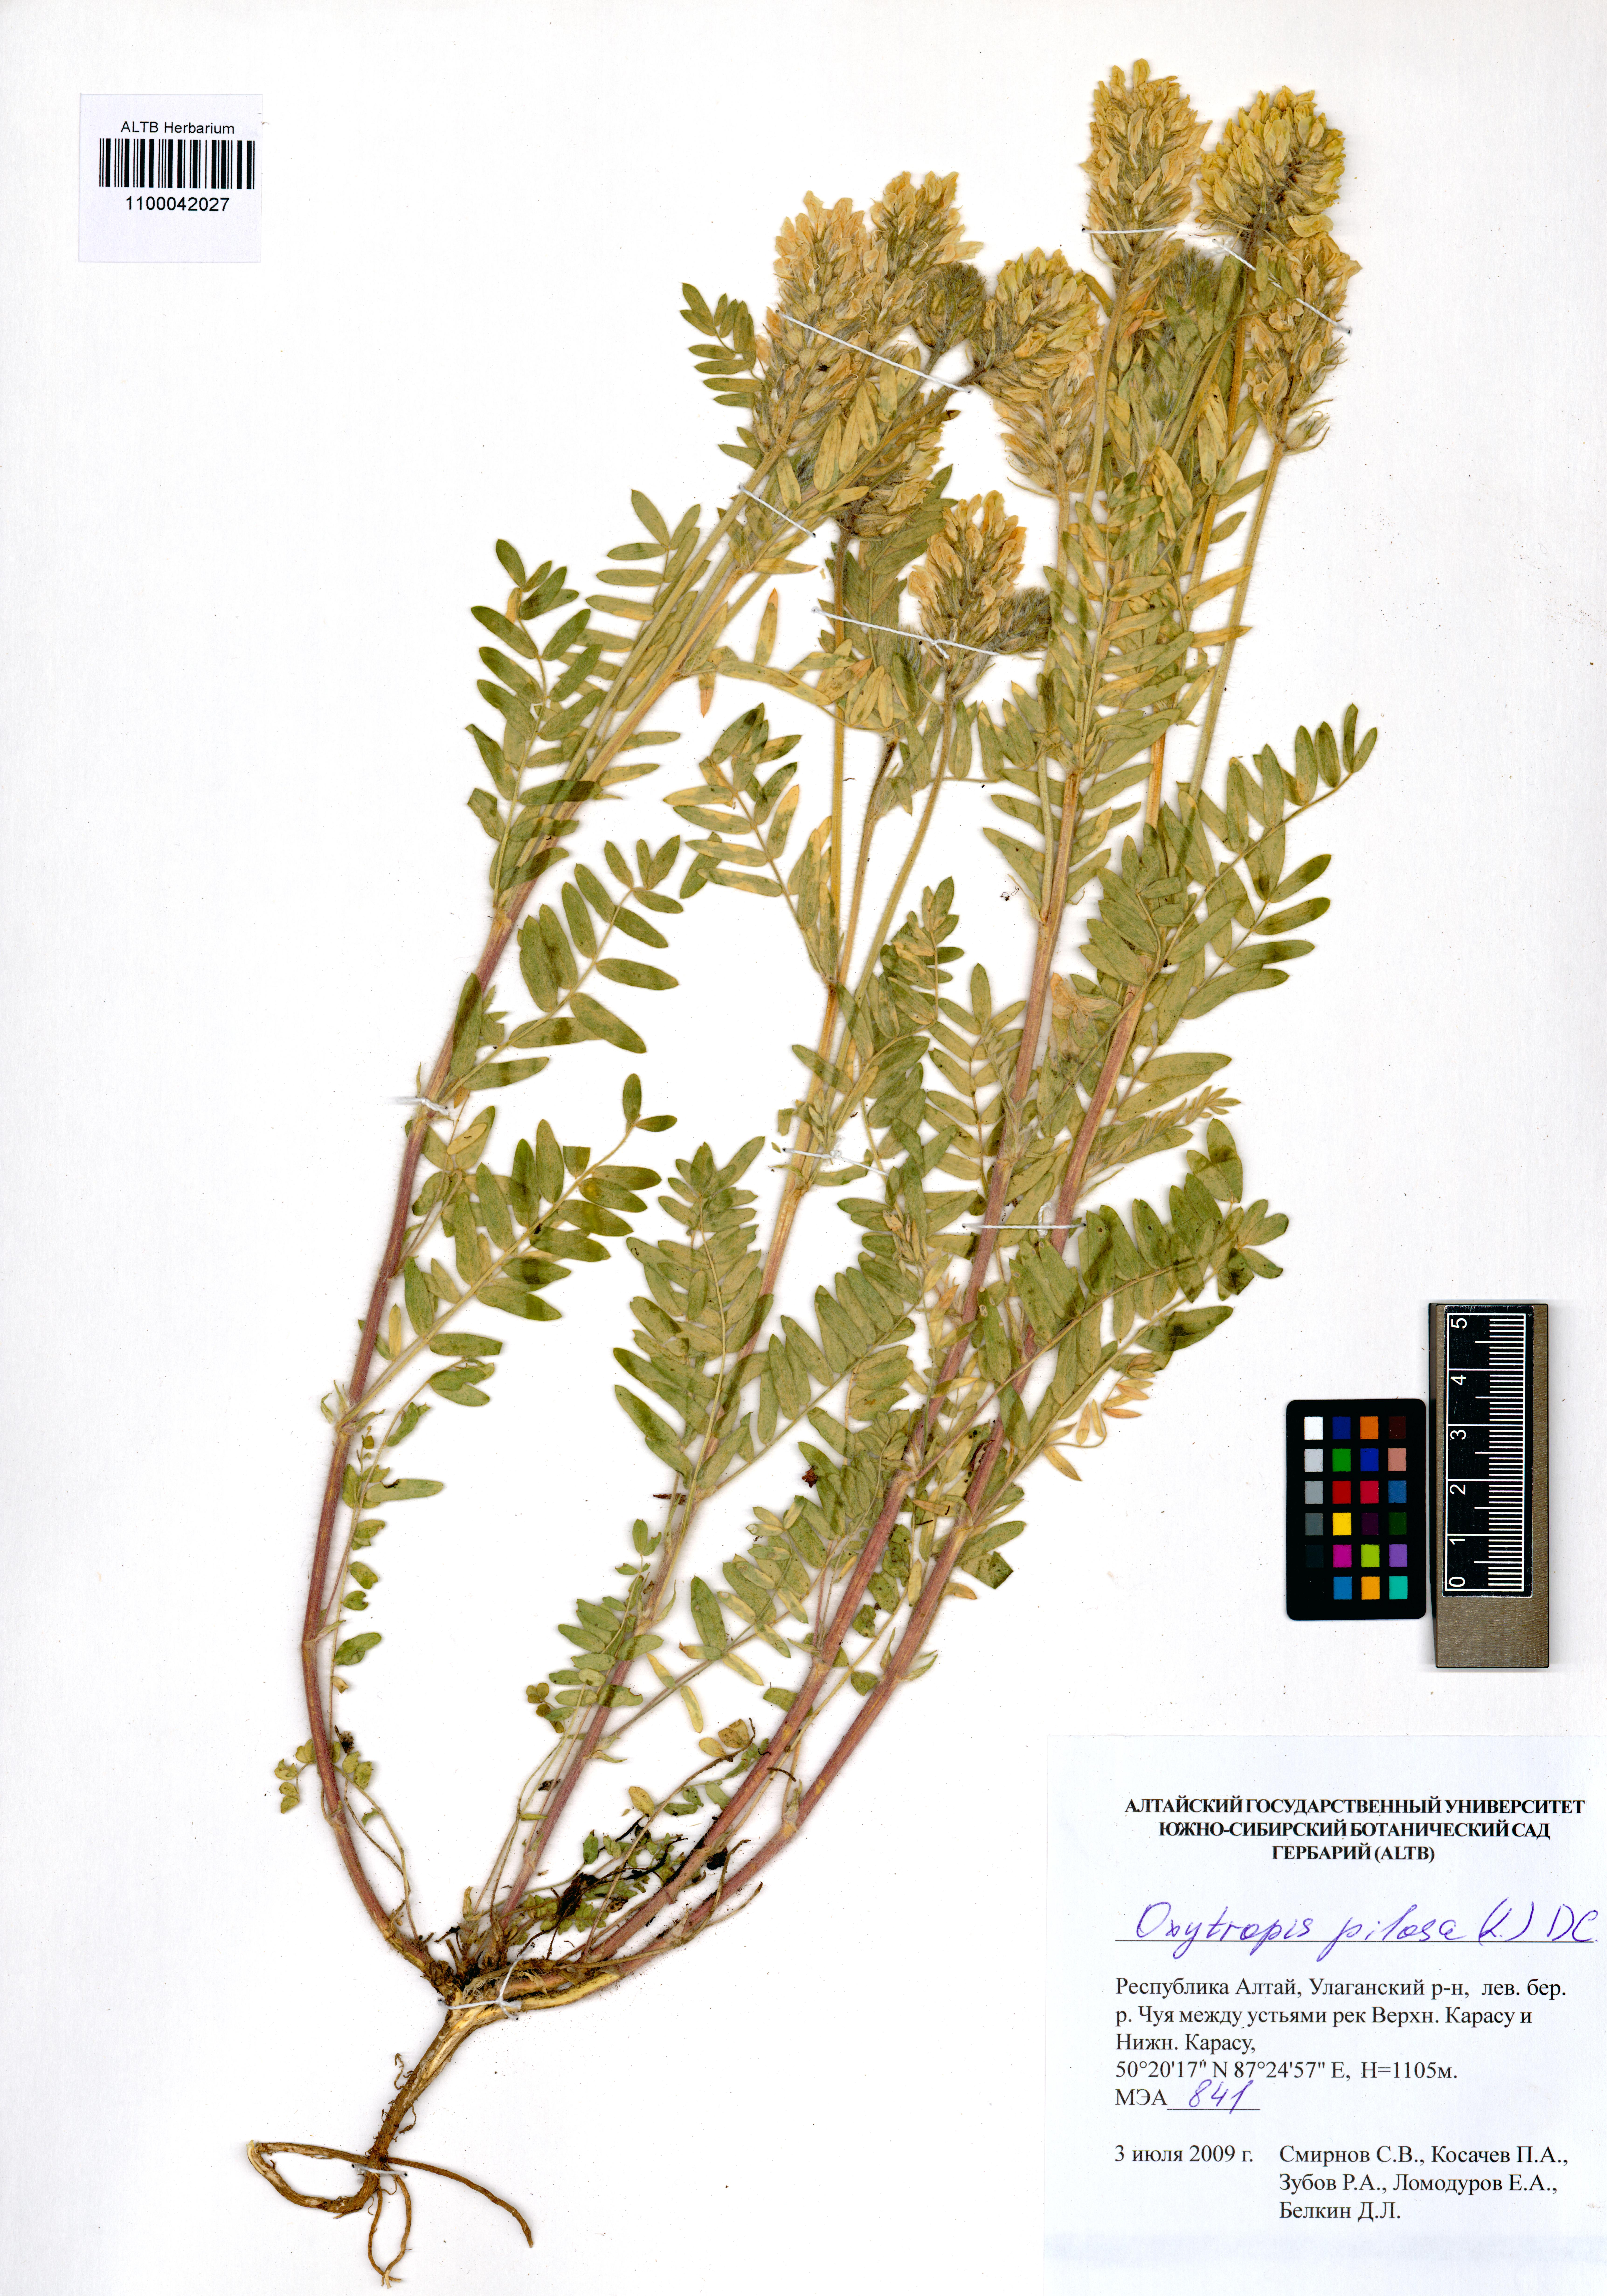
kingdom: Plantae
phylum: Tracheophyta
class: Magnoliopsida
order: Fabales
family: Fabaceae
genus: Oxytropis
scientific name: Oxytropis pilosa
